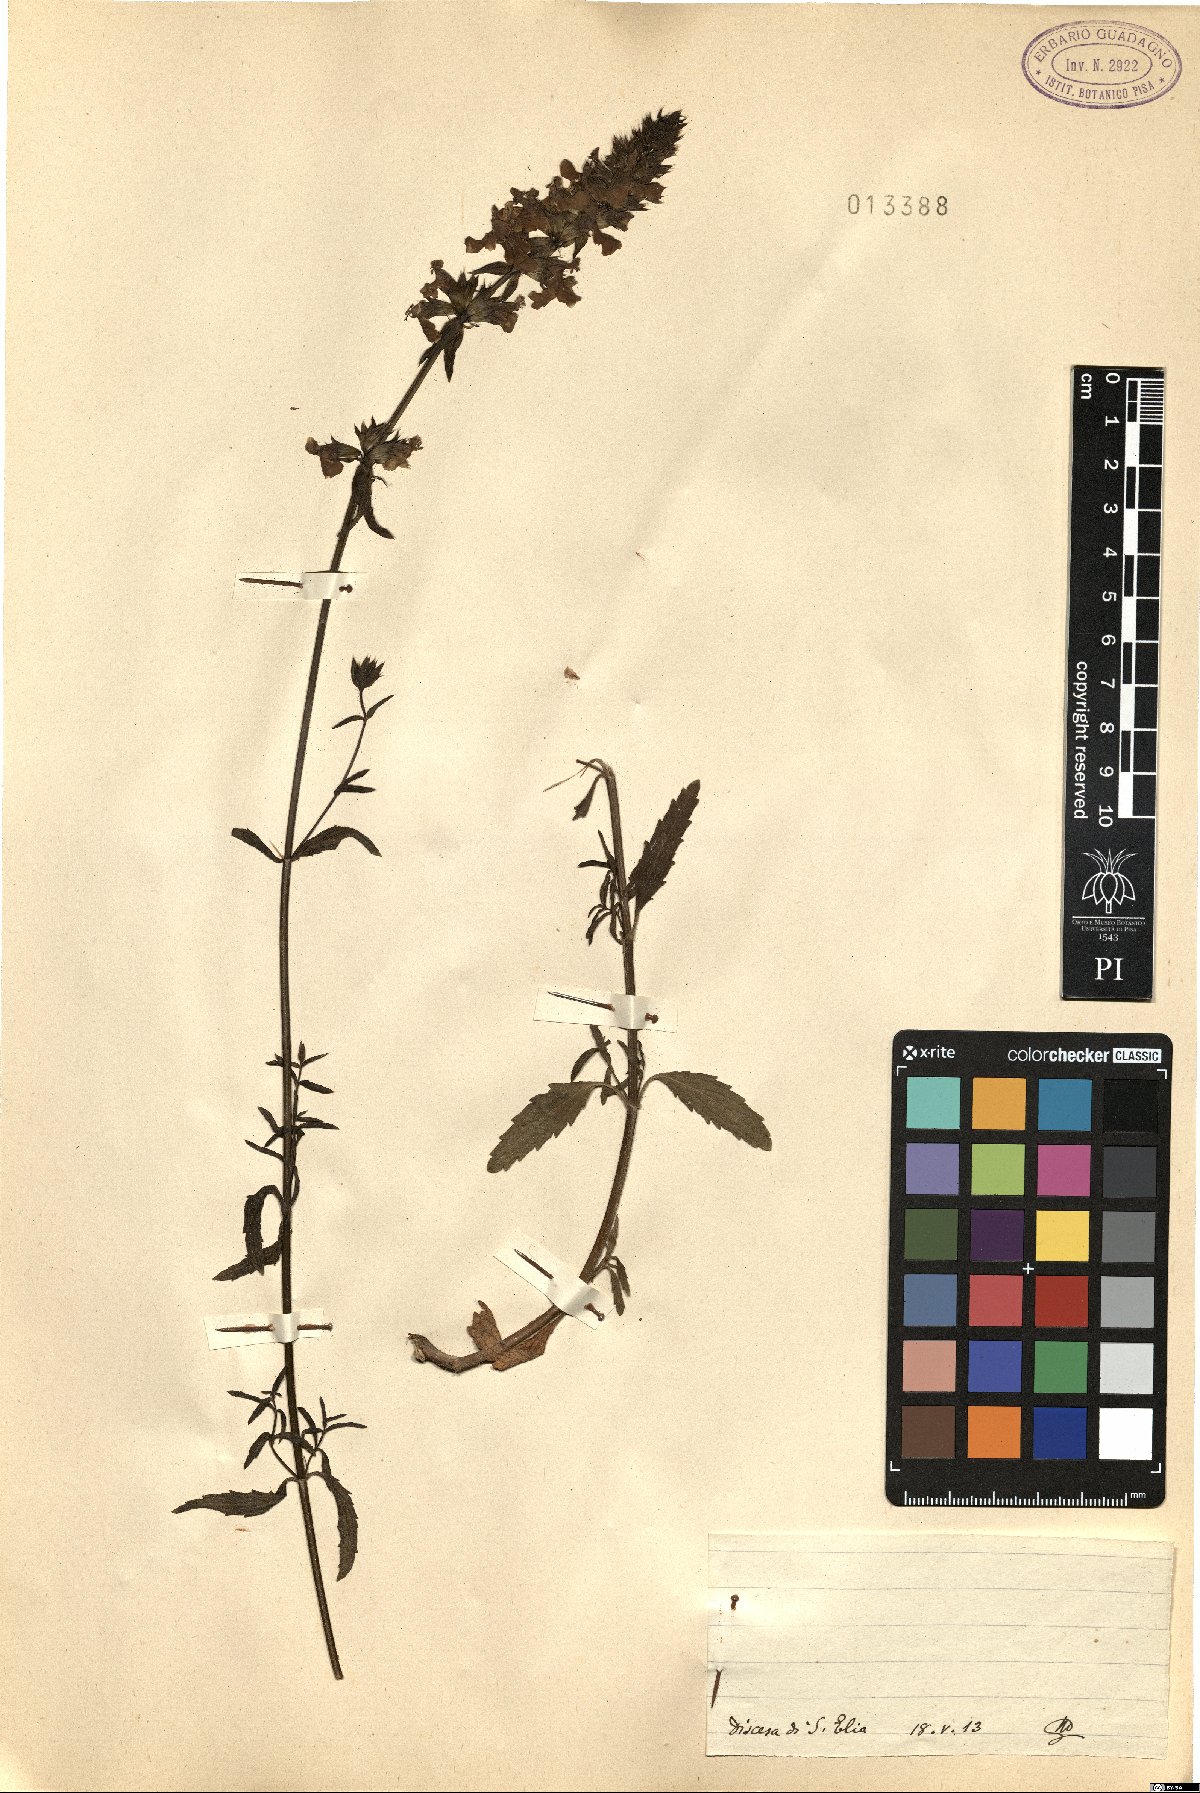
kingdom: Plantae
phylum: Tracheophyta
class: Magnoliopsida
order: Lamiales
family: Lamiaceae
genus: Stachys
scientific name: Stachys
